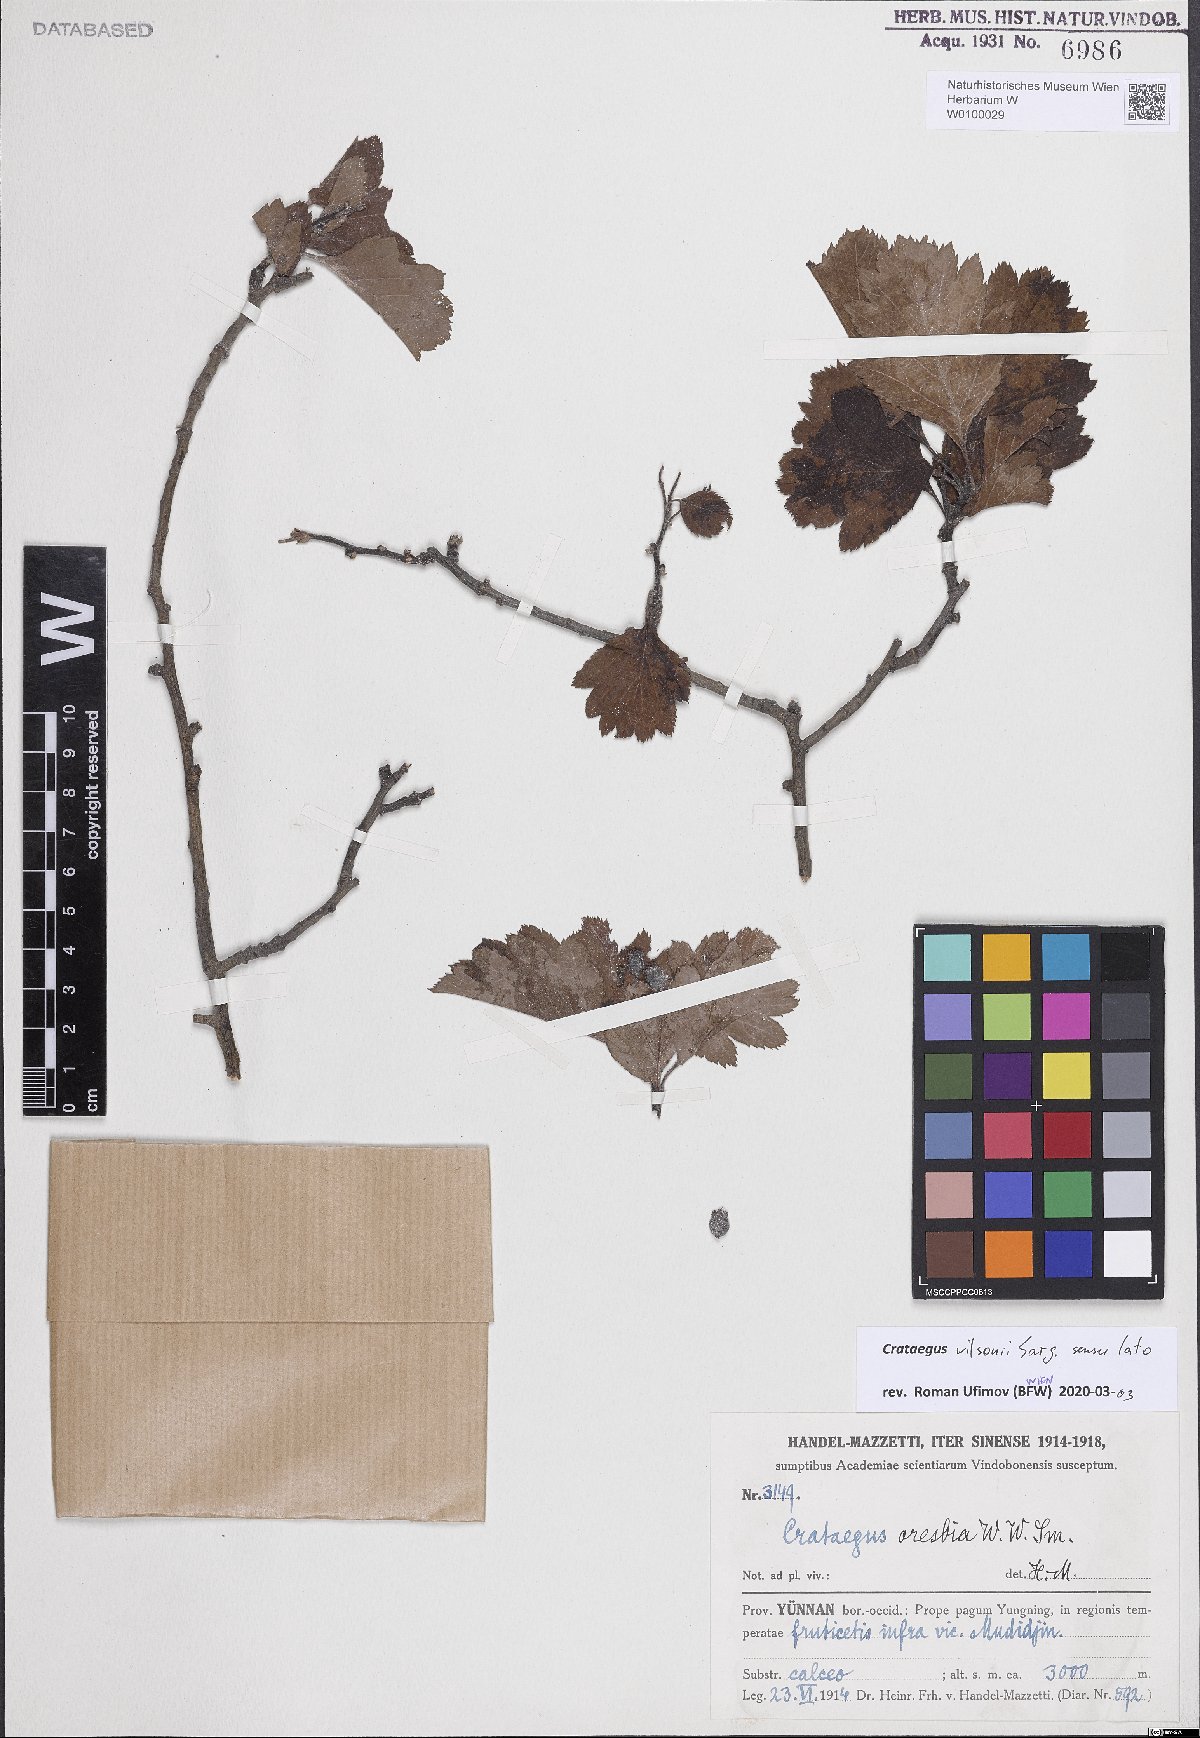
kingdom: Plantae
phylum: Tracheophyta
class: Magnoliopsida
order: Rosales
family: Rosaceae
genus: Crataegus
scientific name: Crataegus wilsonii
